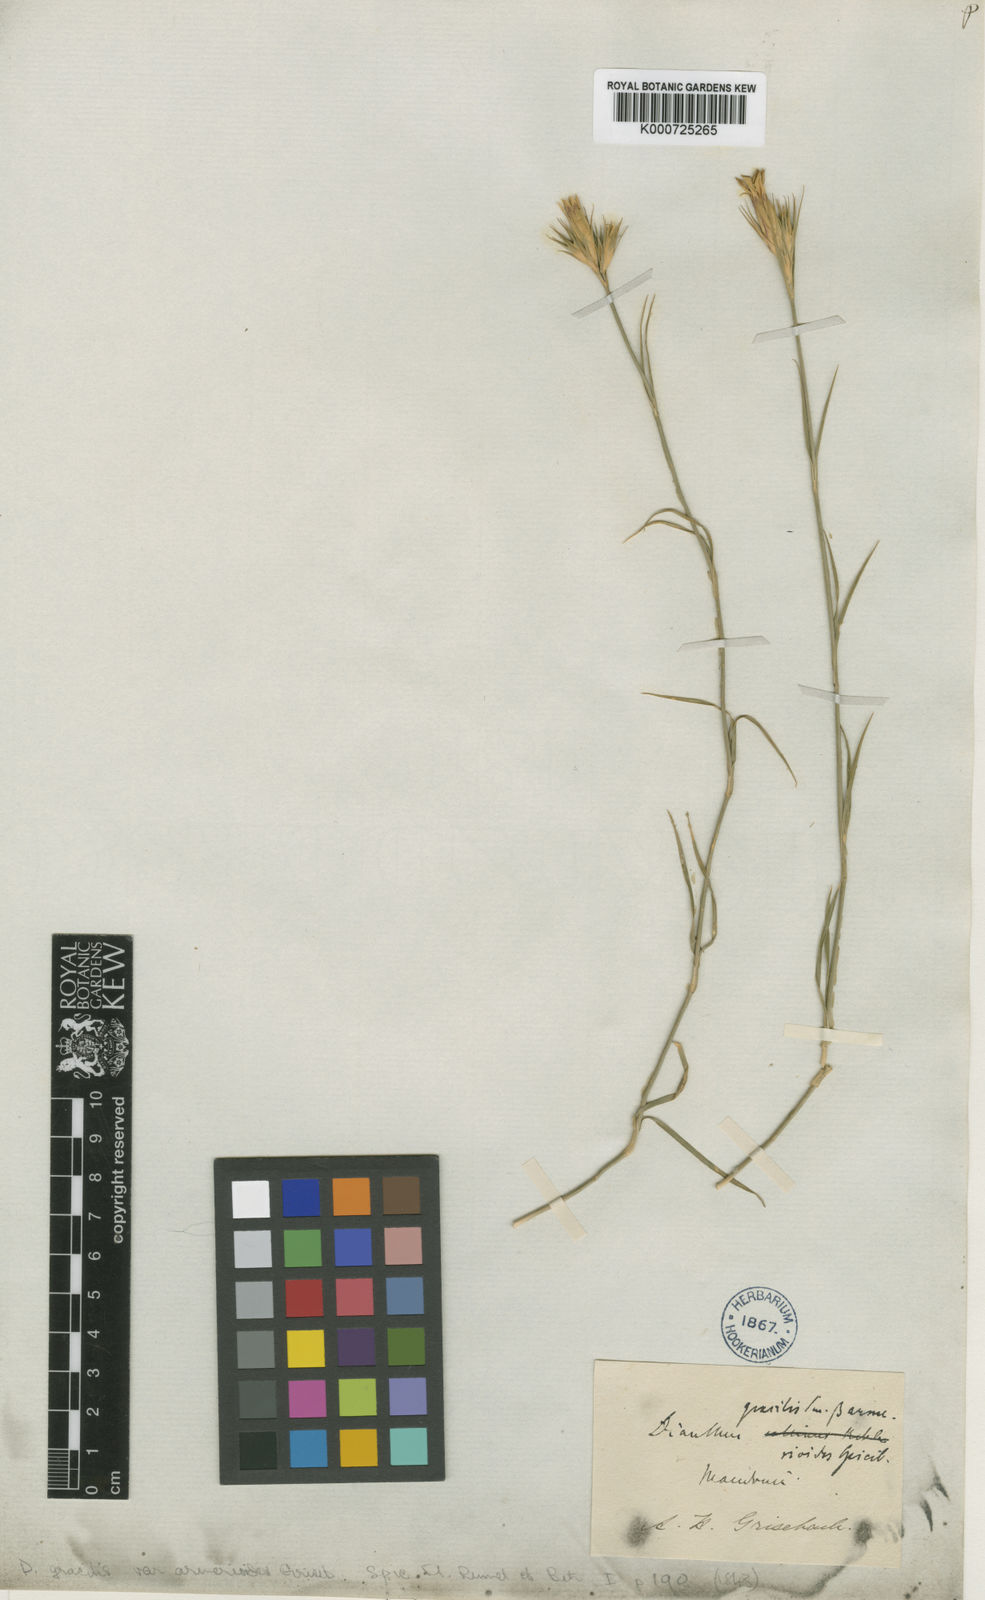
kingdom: Plantae
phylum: Tracheophyta
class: Magnoliopsida
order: Caryophyllales
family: Caryophyllaceae
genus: Dianthus
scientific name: Dianthus gracilis
